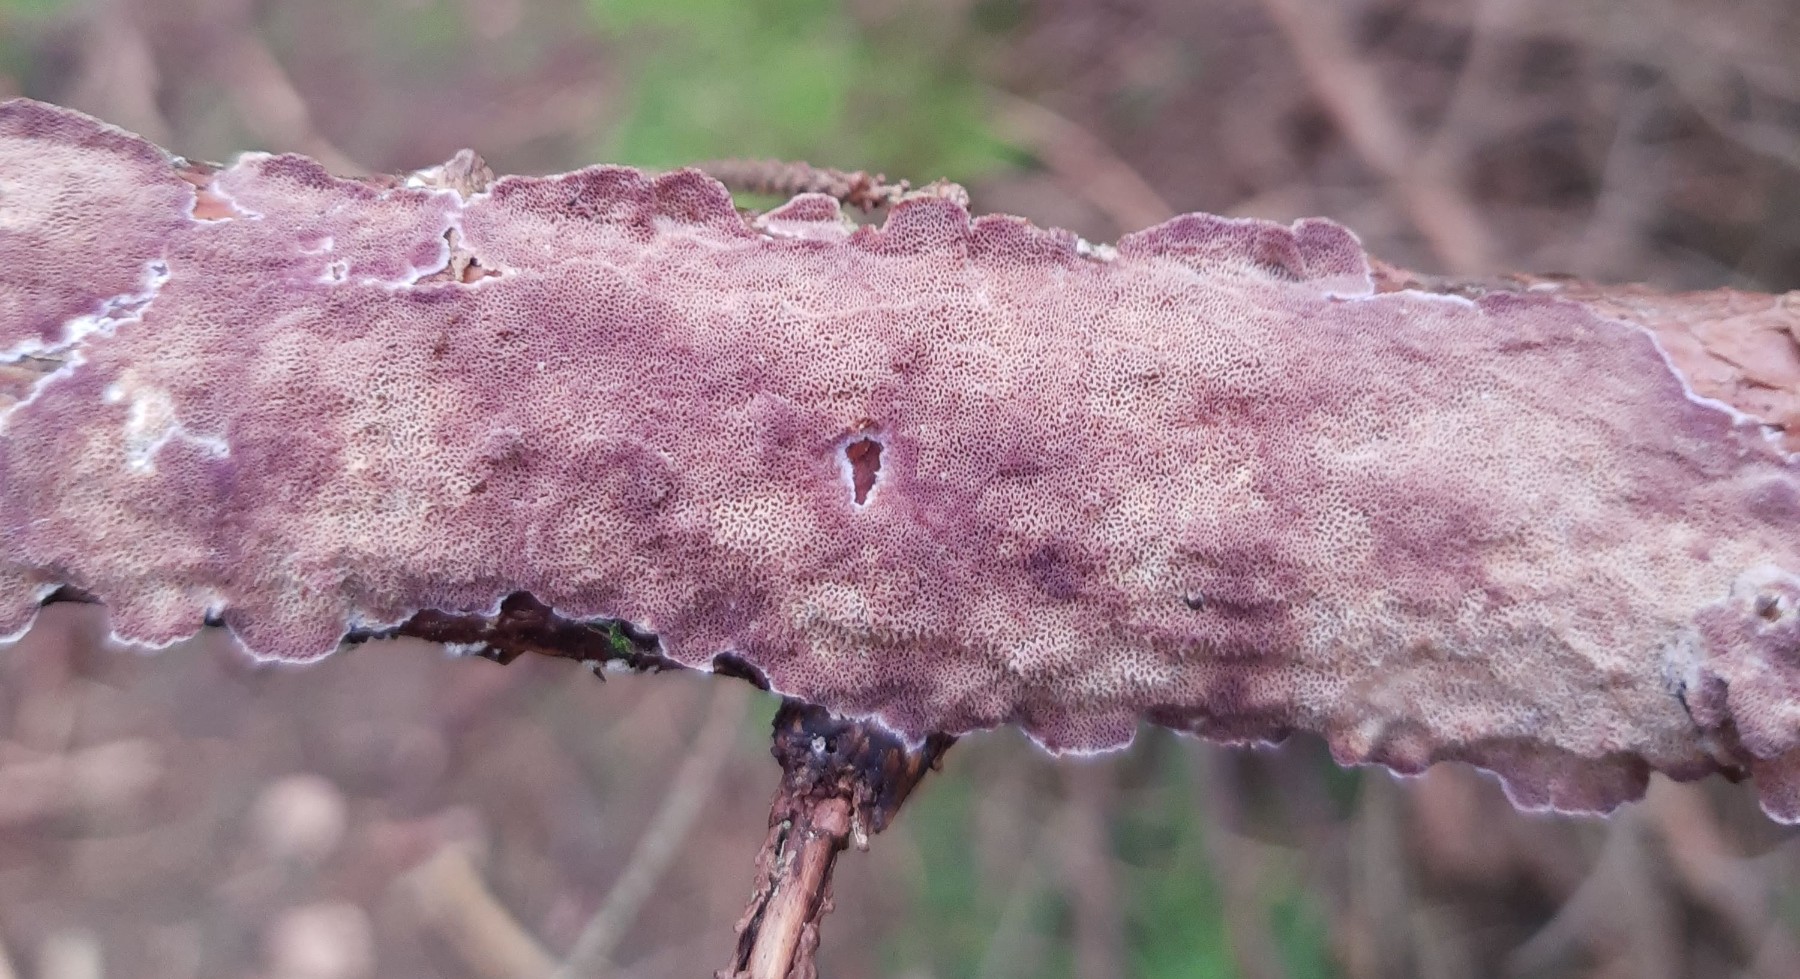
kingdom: Fungi
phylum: Basidiomycota
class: Agaricomycetes
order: Hymenochaetales
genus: Trichaptum
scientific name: Trichaptum abietinum
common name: almindelig violporesvamp
